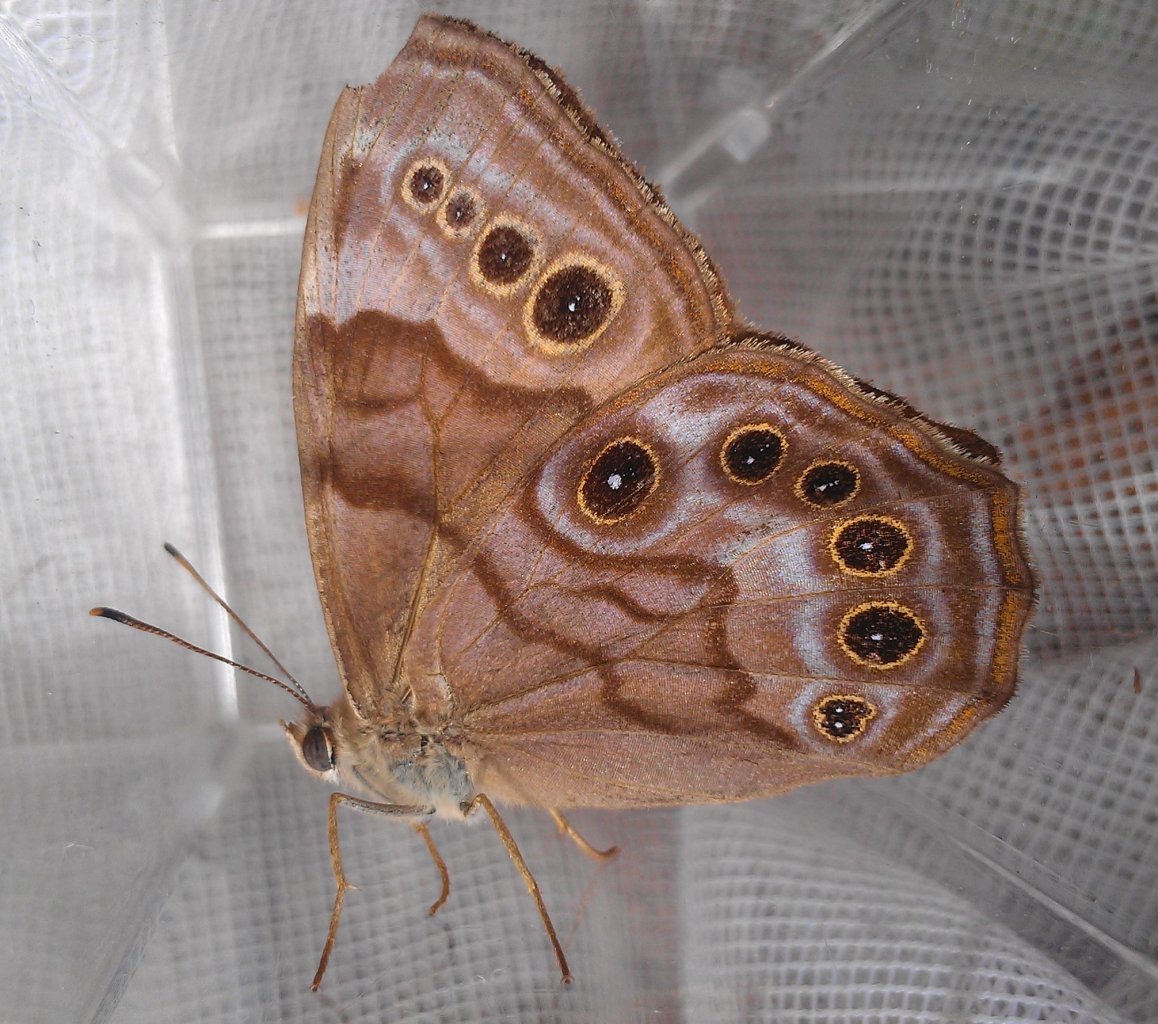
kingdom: Animalia
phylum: Arthropoda
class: Insecta
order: Lepidoptera
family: Nymphalidae
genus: Lethe
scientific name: Lethe anthedon
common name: Northern Pearly-Eye
